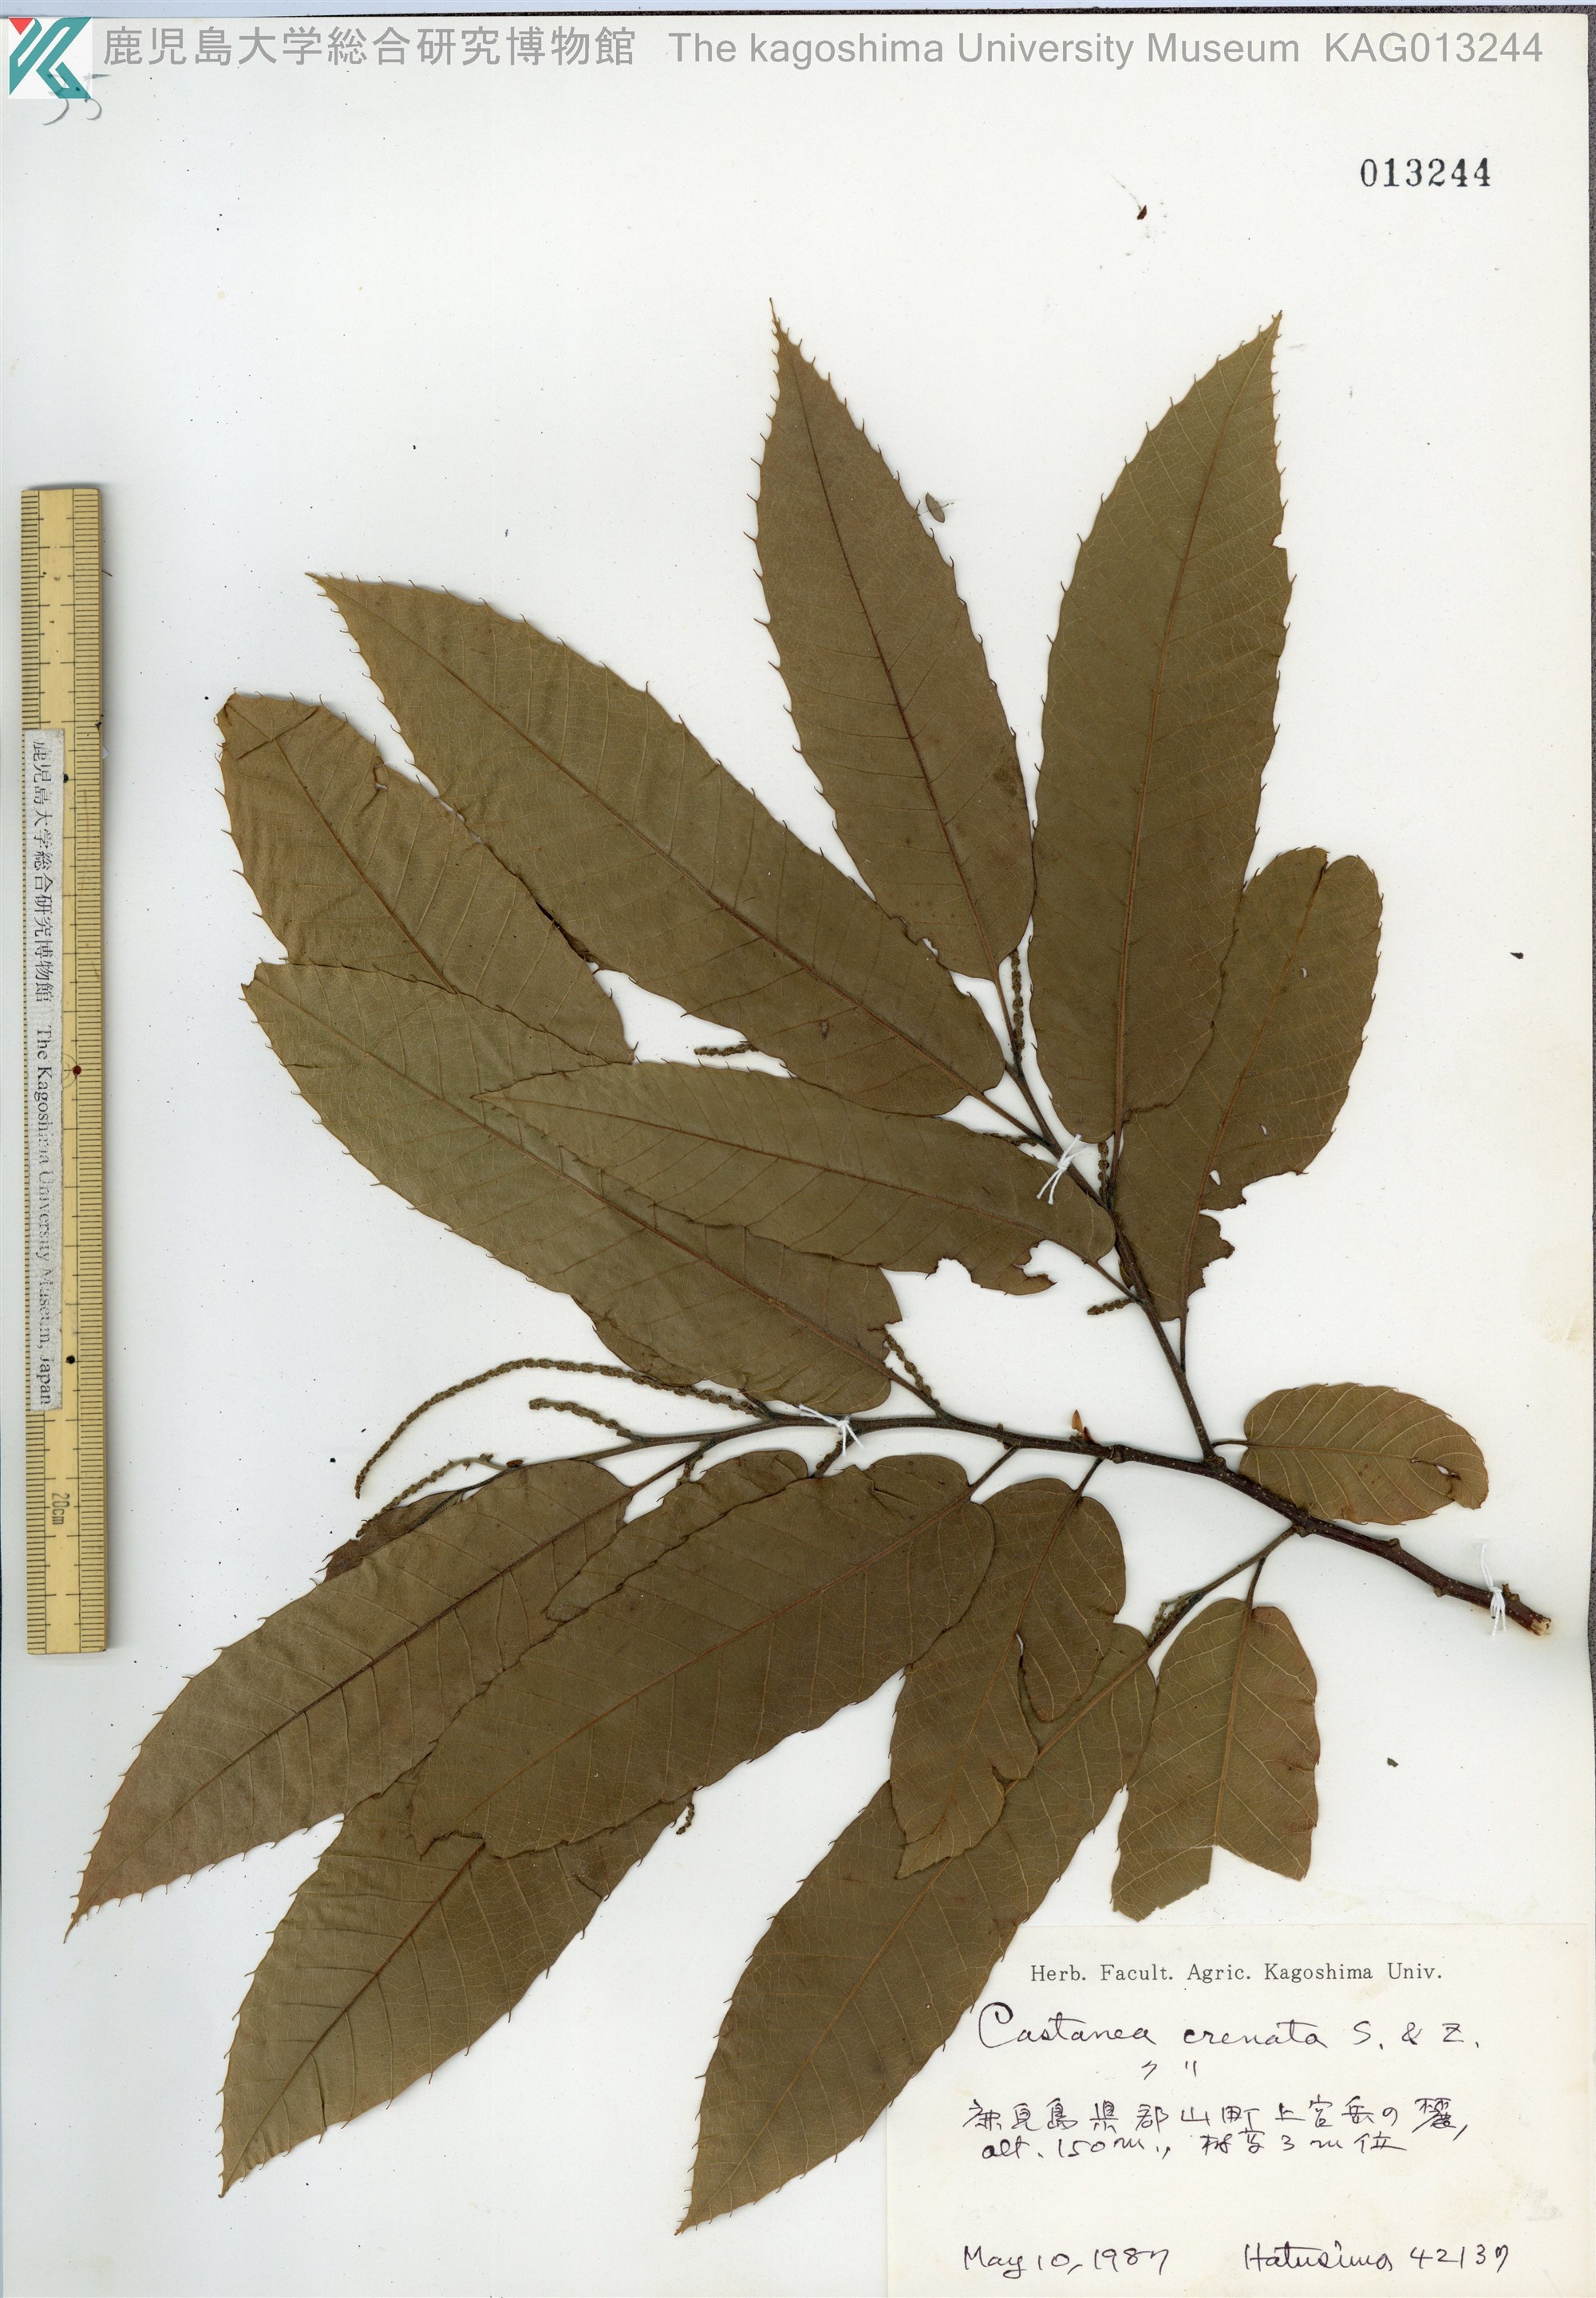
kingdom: Plantae
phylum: Tracheophyta
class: Magnoliopsida
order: Fagales
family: Fagaceae
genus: Castanea
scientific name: Castanea crenata
